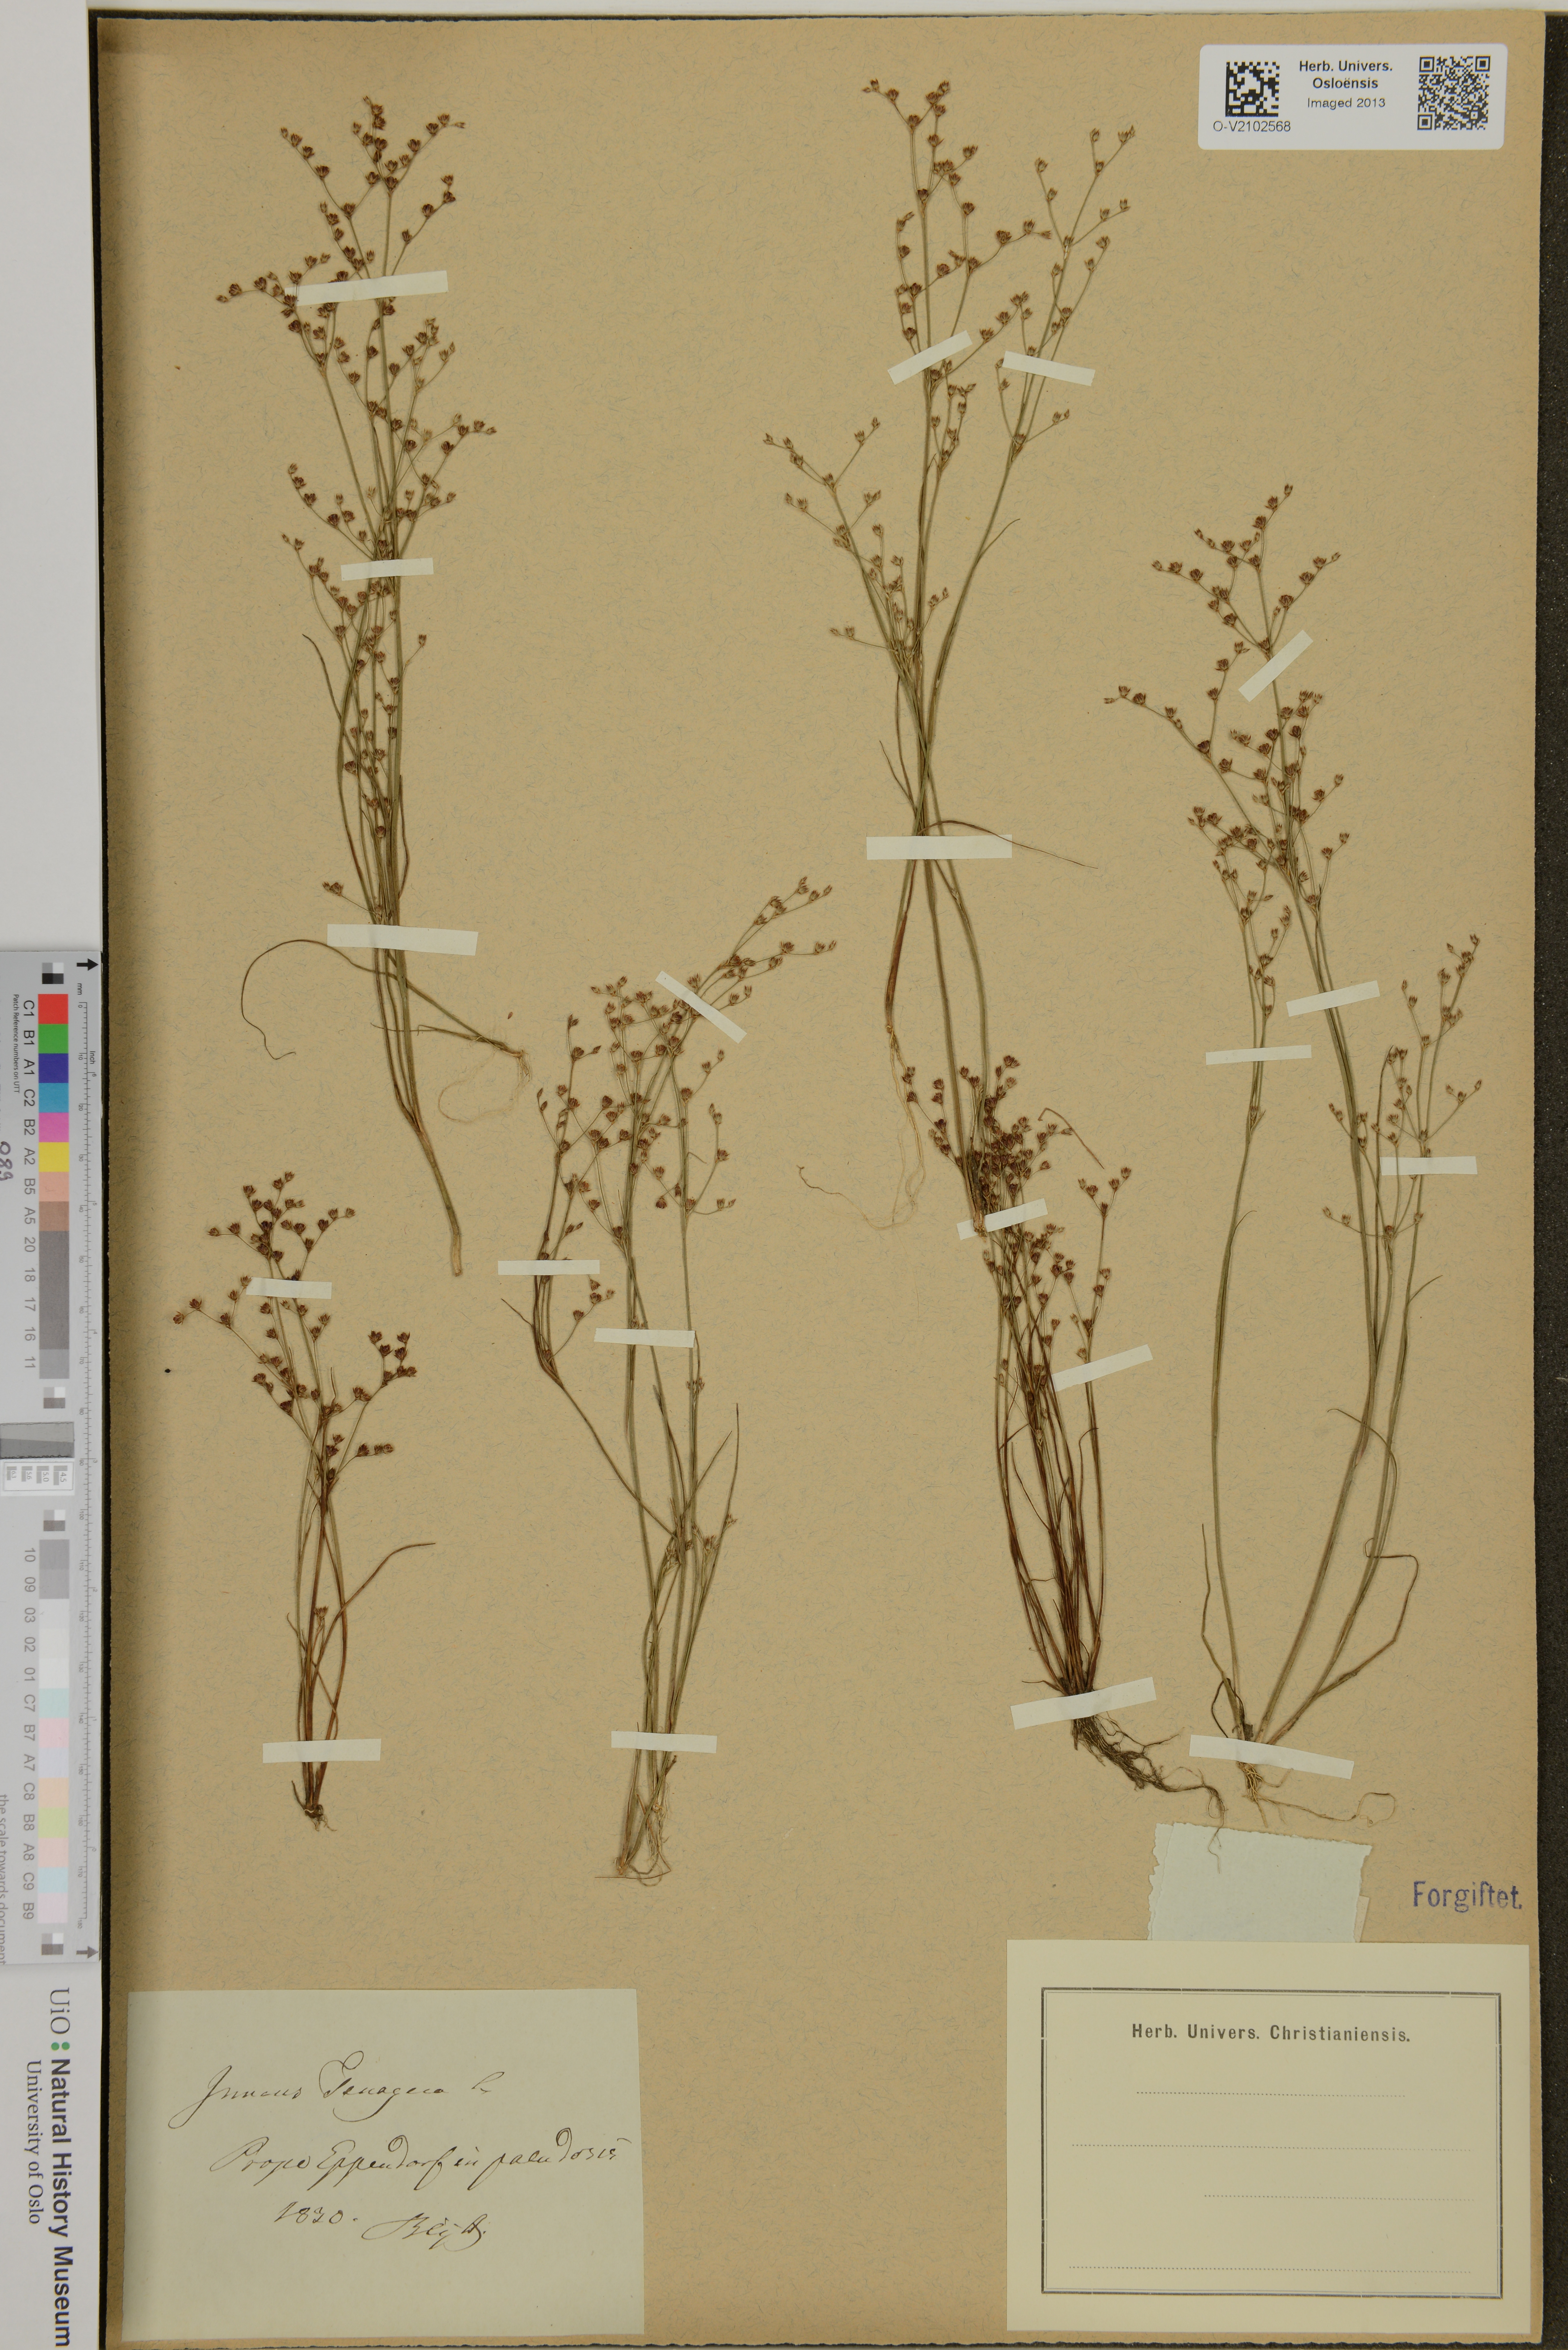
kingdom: Plantae
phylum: Tracheophyta
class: Liliopsida
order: Poales
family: Juncaceae
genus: Juncus
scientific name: Juncus tenageia
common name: Sand rush
